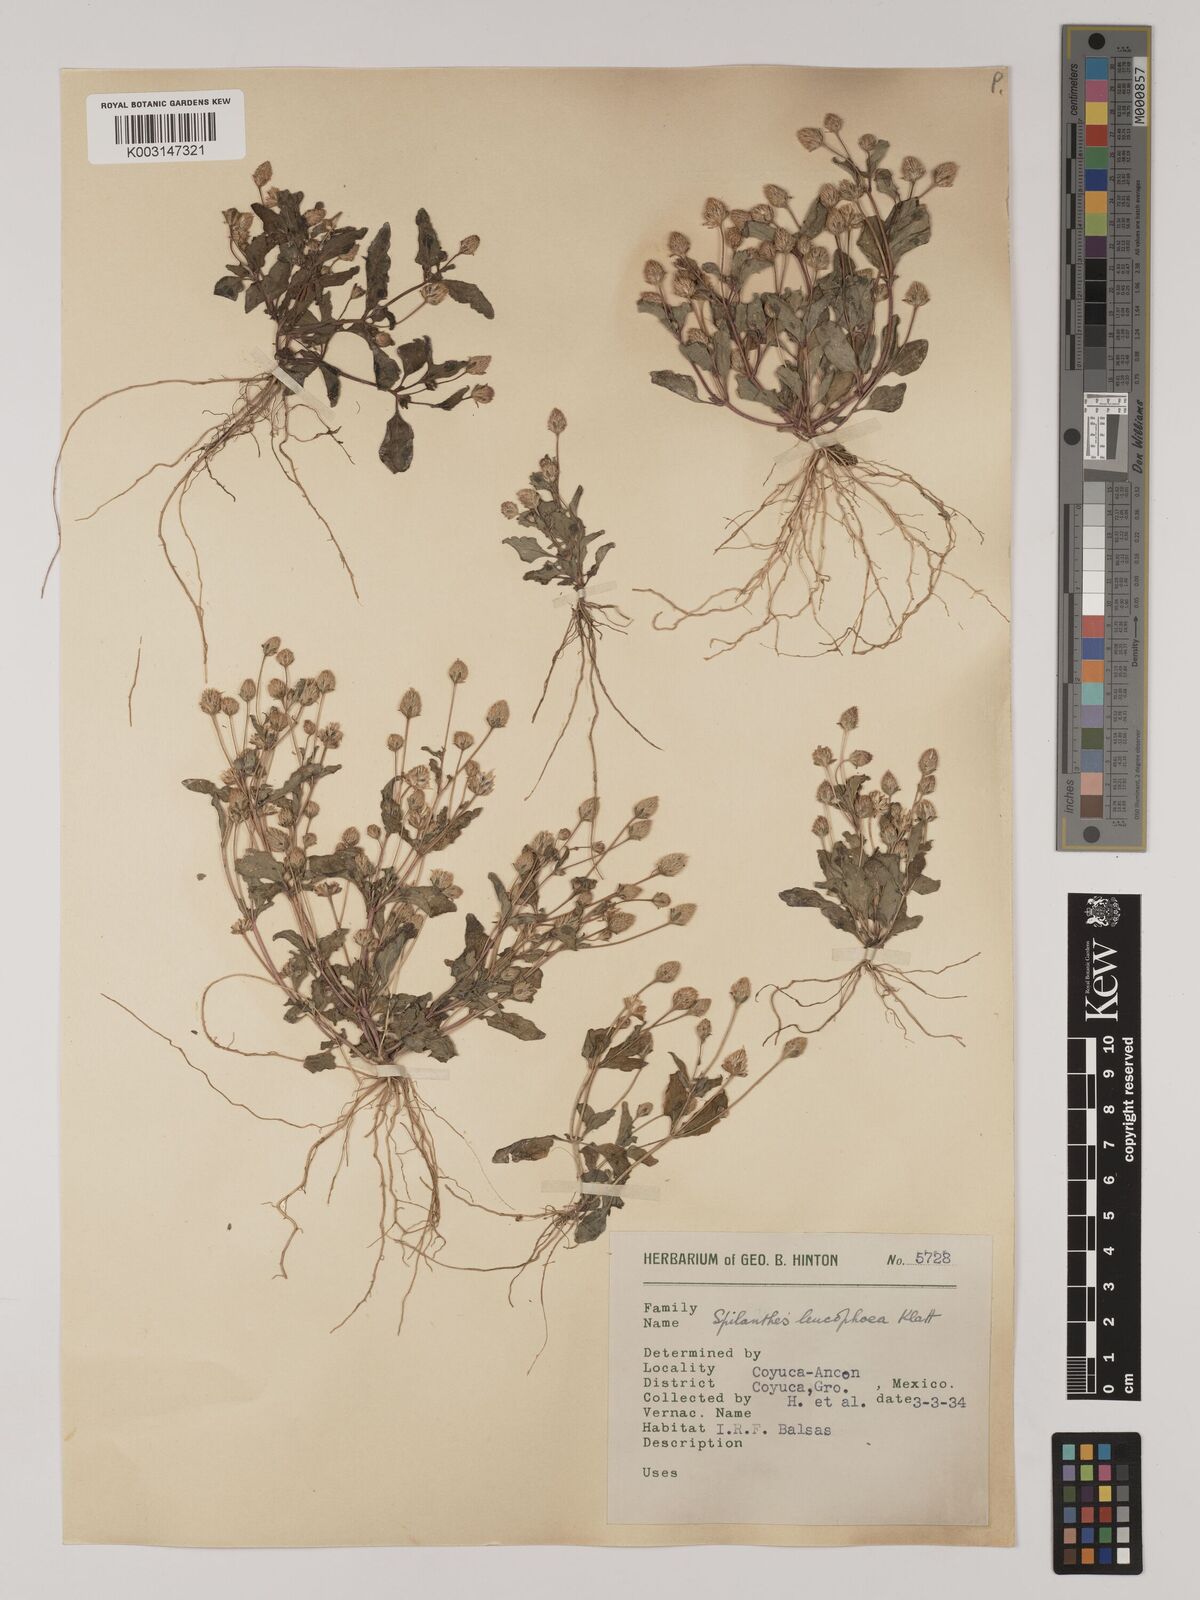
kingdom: Plantae
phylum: Tracheophyta
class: Magnoliopsida
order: Asterales
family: Asteraceae
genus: Acmella
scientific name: Acmella radicans
